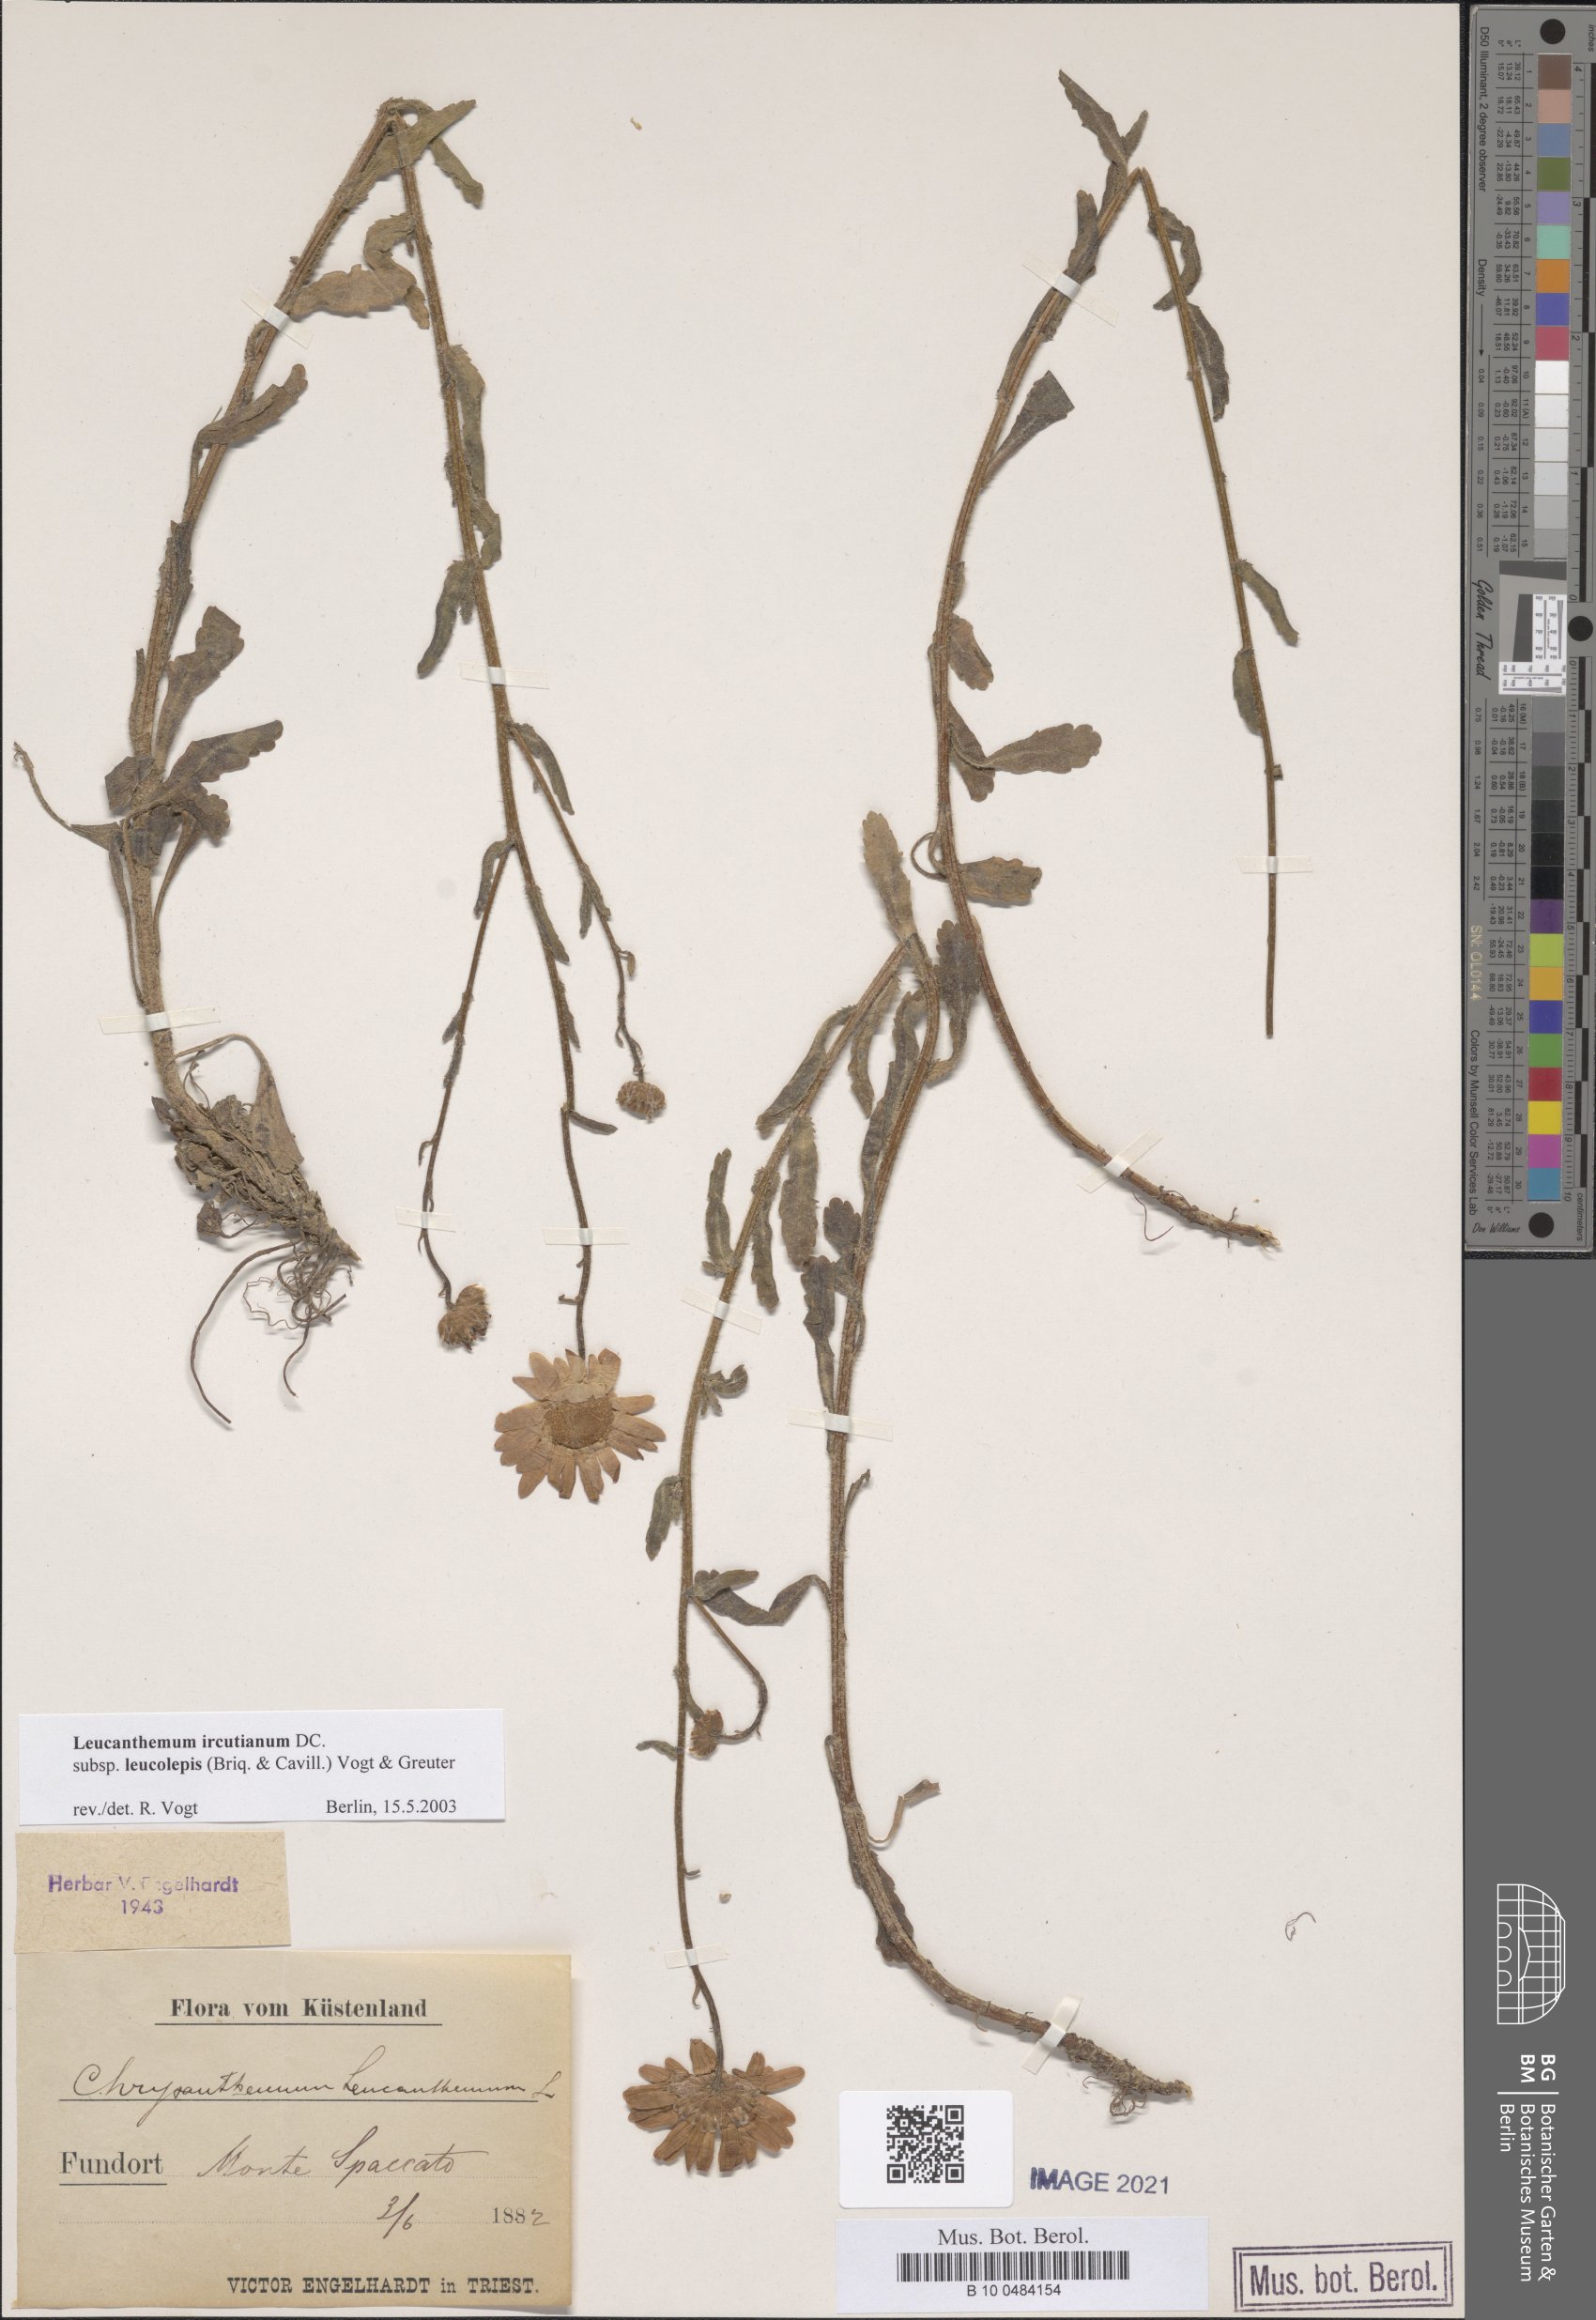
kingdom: Plantae
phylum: Tracheophyta
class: Magnoliopsida
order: Asterales
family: Asteraceae
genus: Leucanthemum
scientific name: Leucanthemum ircutianum
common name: Daisy
